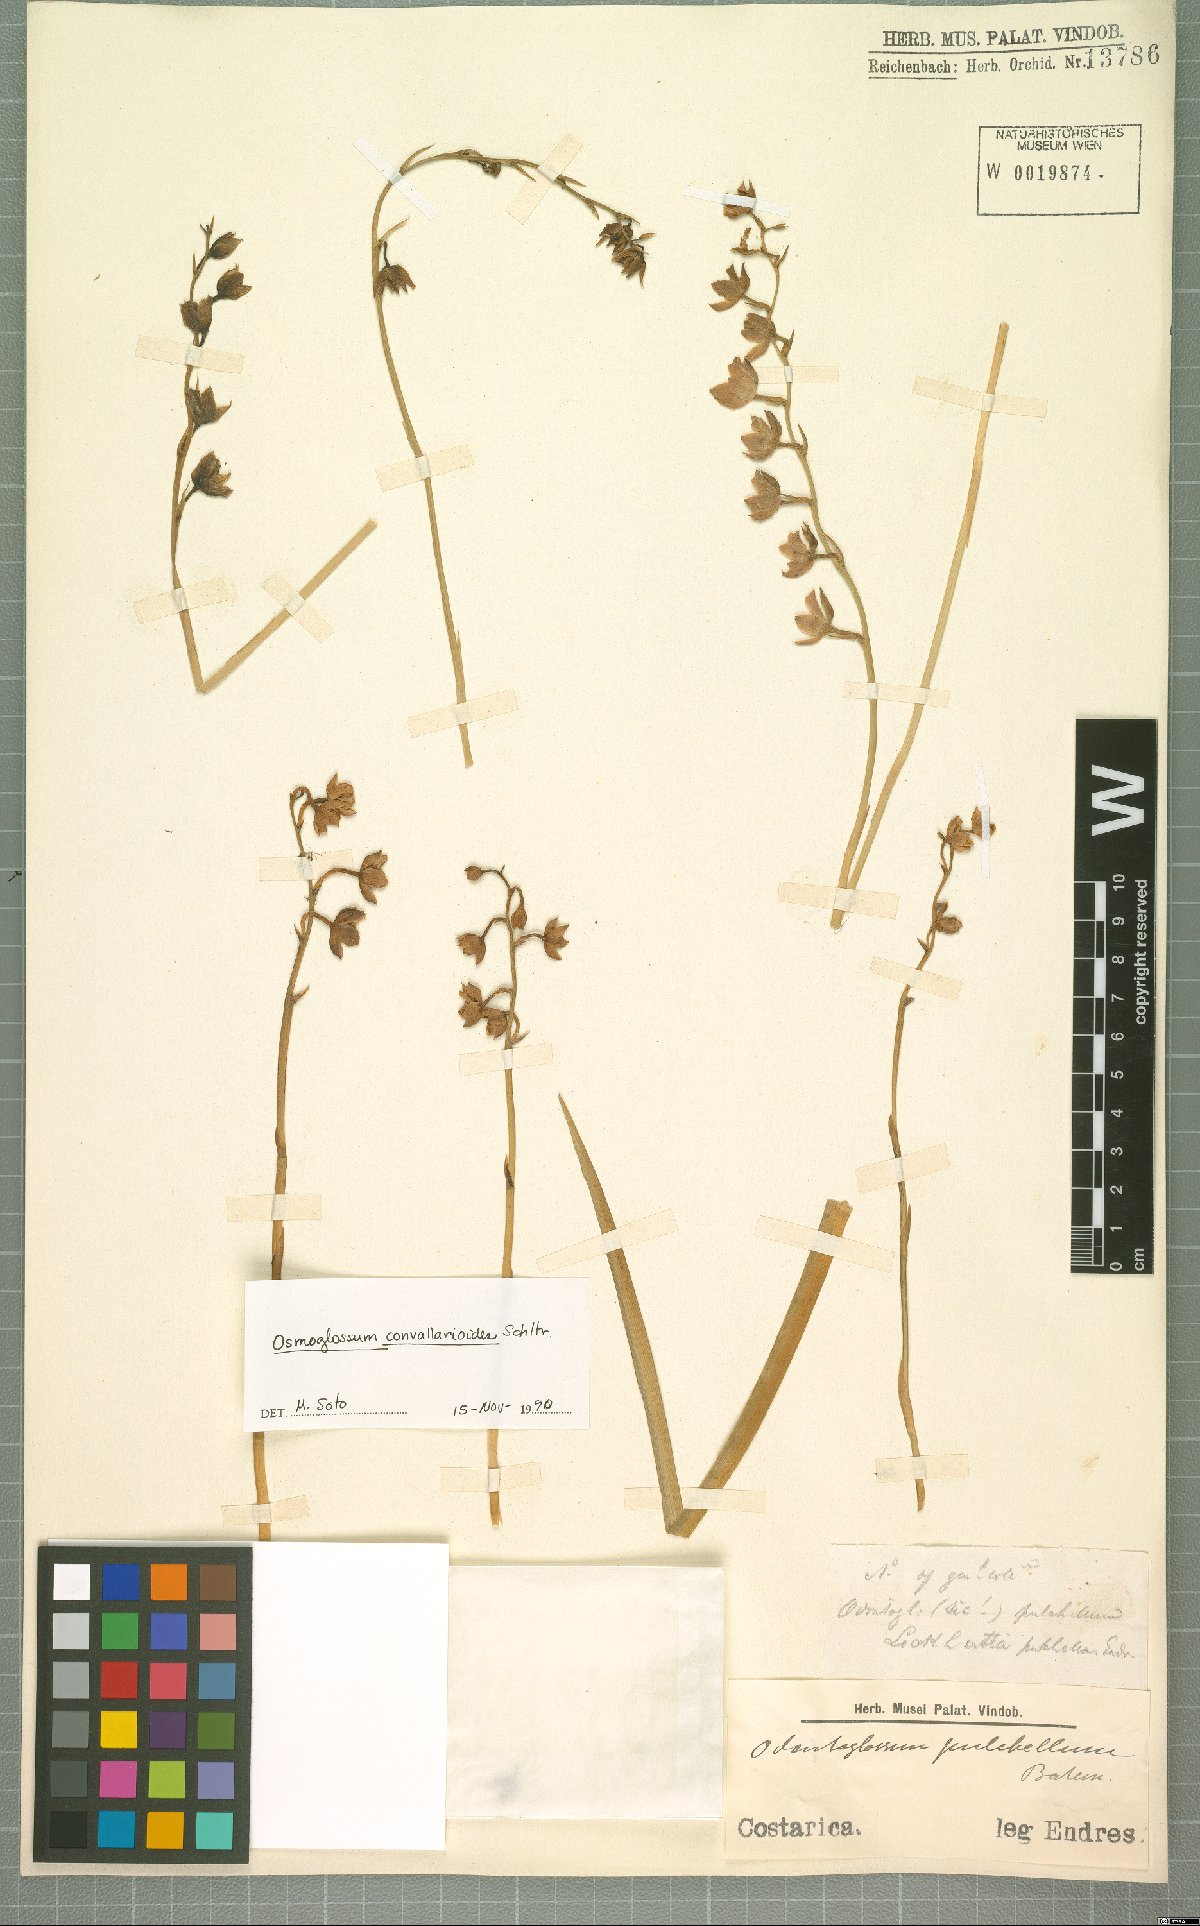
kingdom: Plantae
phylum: Tracheophyta
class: Liliopsida
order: Asparagales
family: Orchidaceae
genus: Cuitlauzina
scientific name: Cuitlauzina convallarioides
